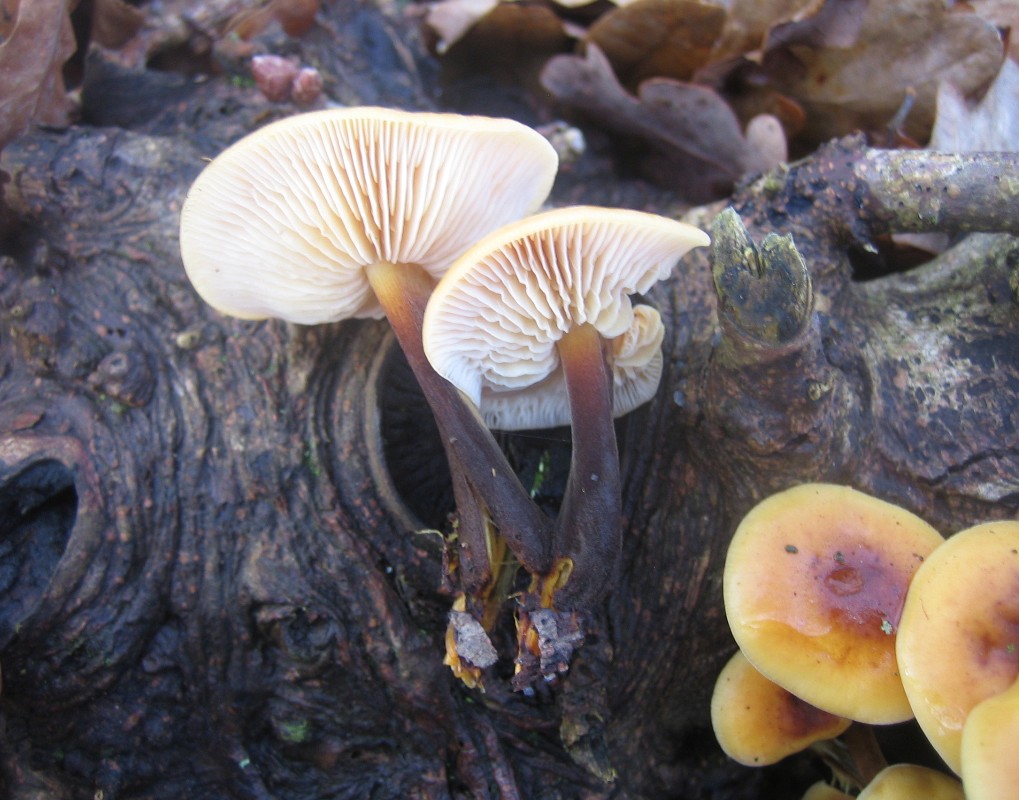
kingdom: Fungi
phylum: Basidiomycota
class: Agaricomycetes
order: Agaricales
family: Physalacriaceae
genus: Flammulina
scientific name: Flammulina velutipes
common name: gul fløjlsfod
